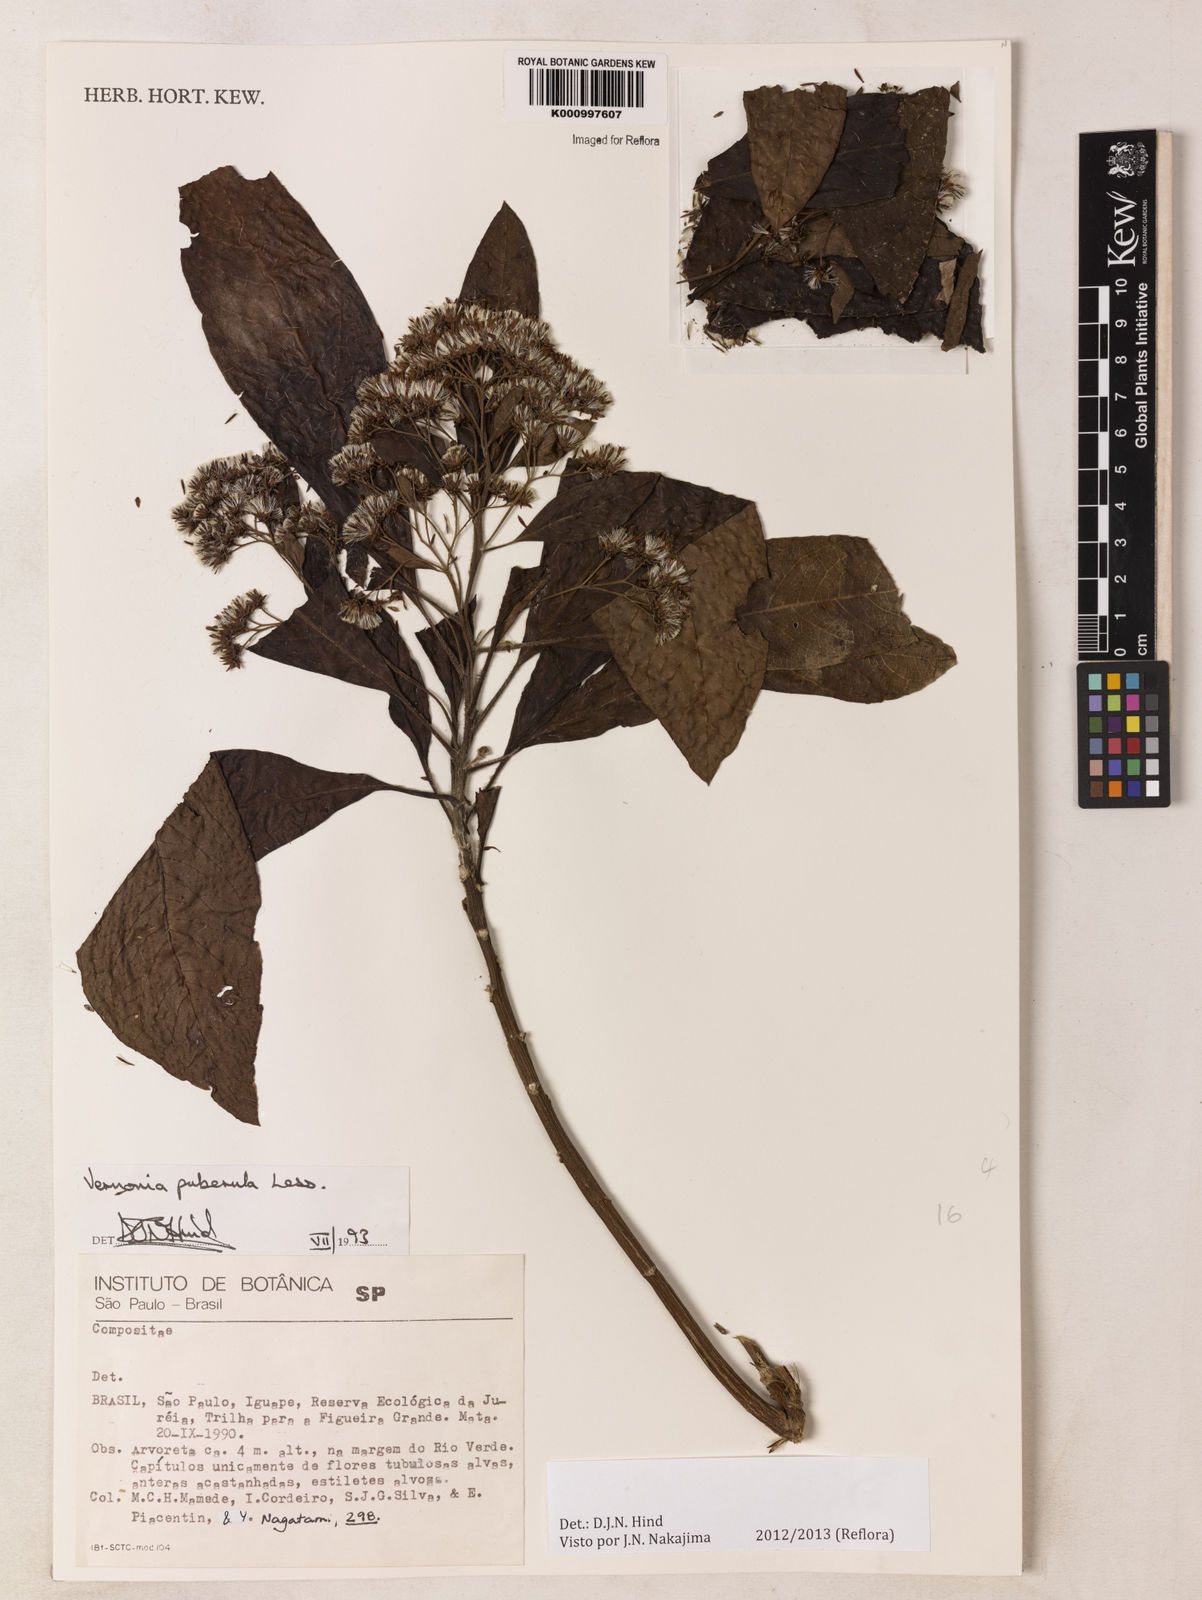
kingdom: Plantae
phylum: Tracheophyta
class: Magnoliopsida
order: Asterales
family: Asteraceae
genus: Vernonanthura
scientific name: Vernonanthura puberula
